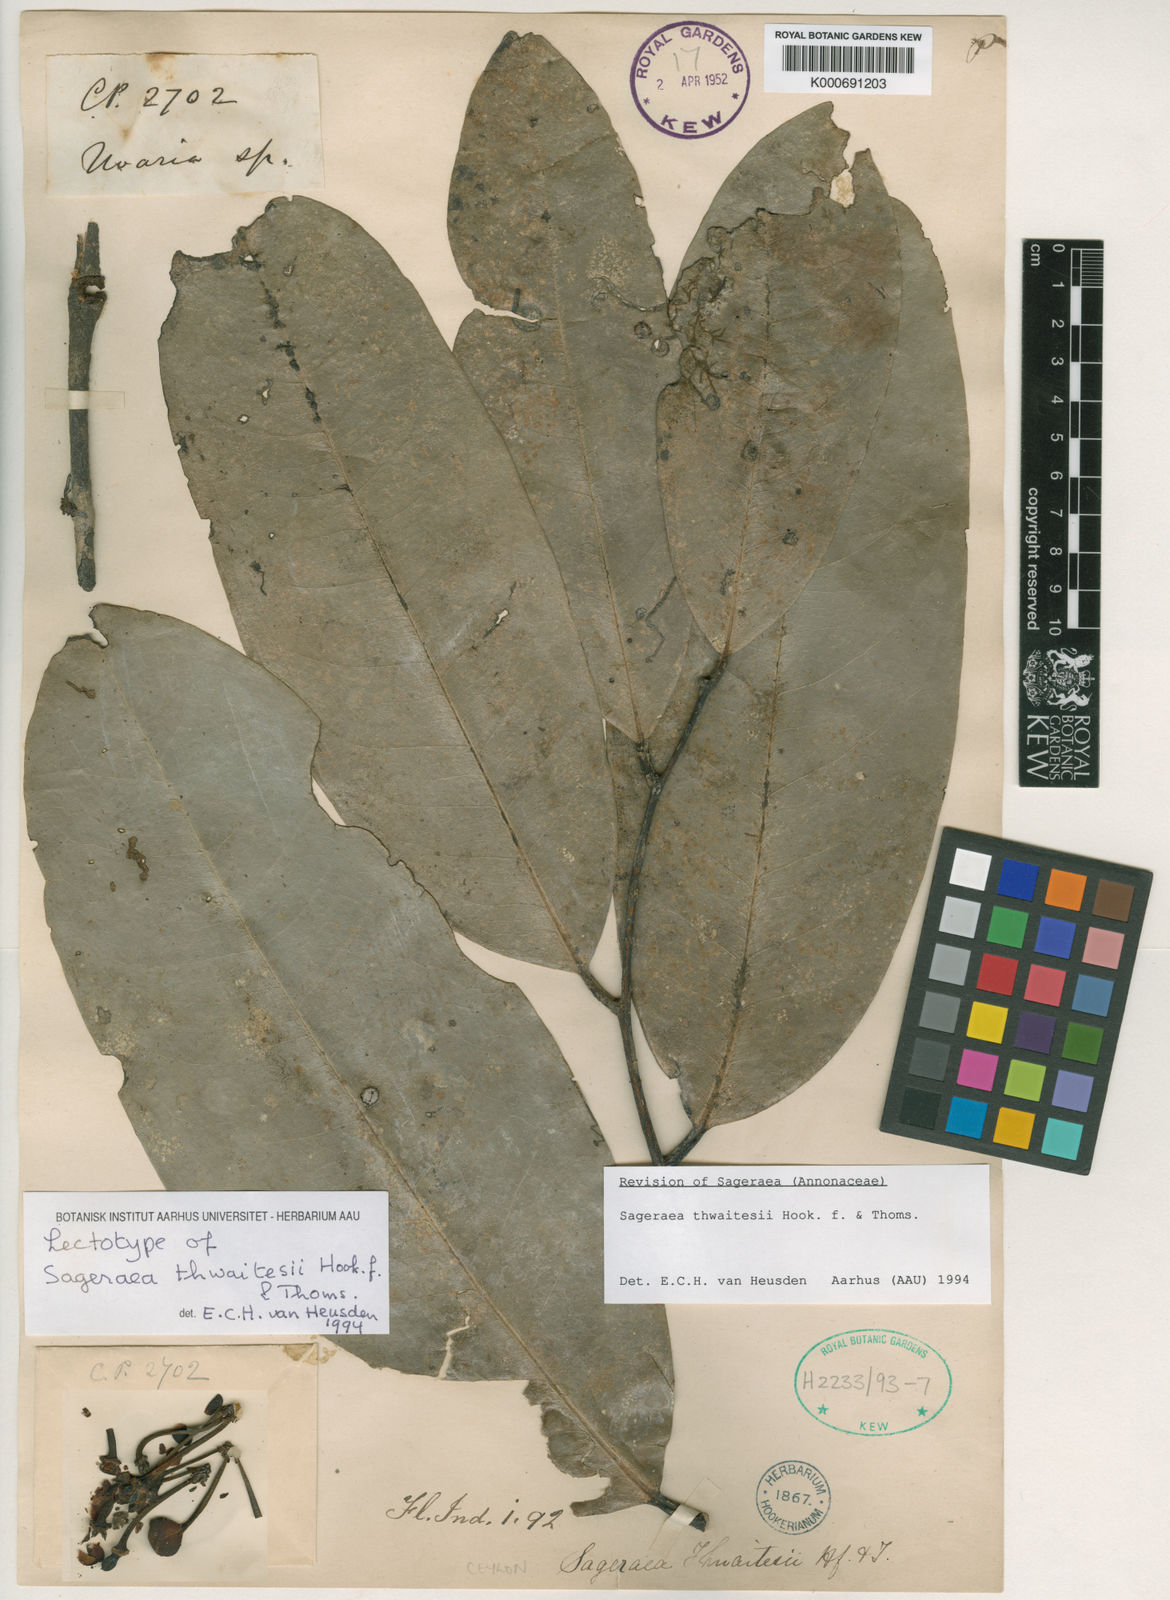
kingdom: Plantae
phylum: Tracheophyta
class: Magnoliopsida
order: Magnoliales
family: Annonaceae
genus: Sageraea
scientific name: Sageraea thwaitesii
